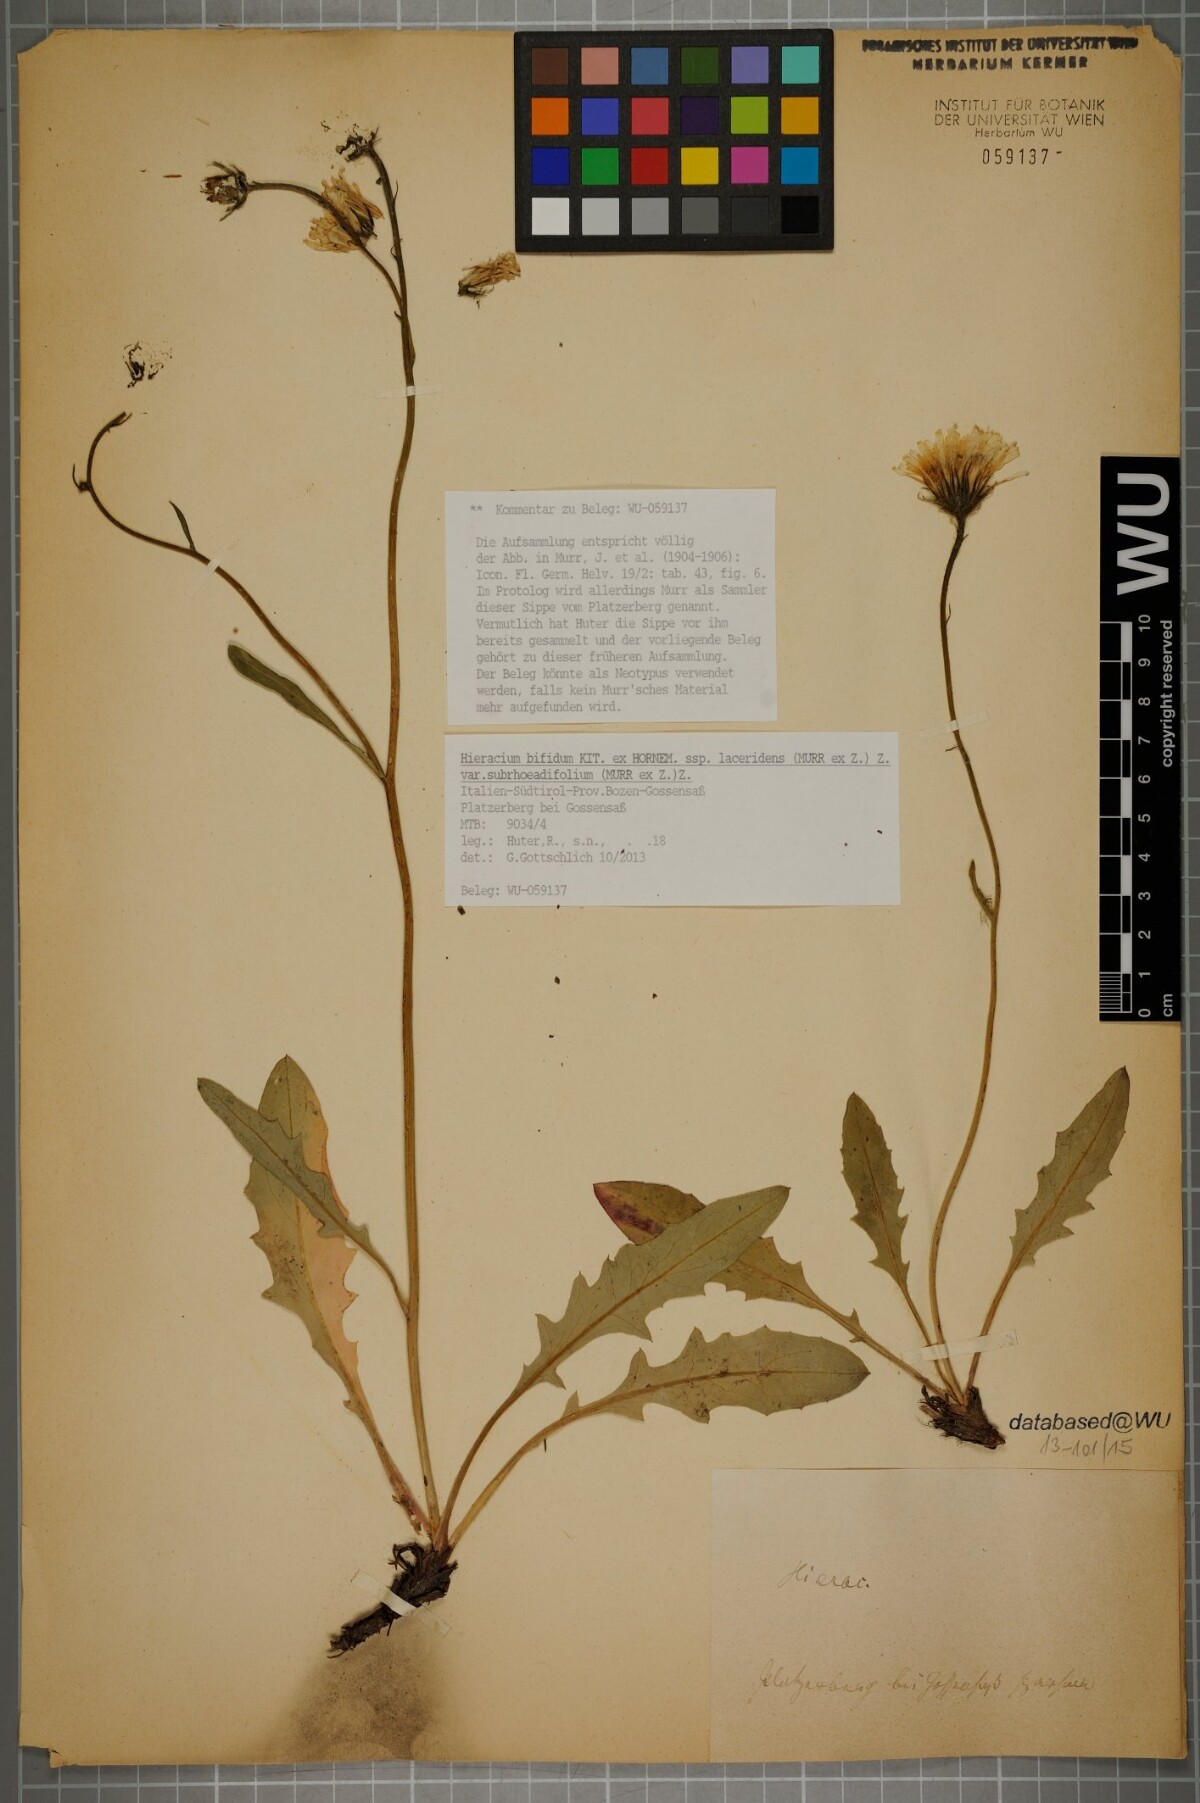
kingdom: Plantae
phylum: Tracheophyta
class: Magnoliopsida
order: Asterales
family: Asteraceae
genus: Hieracium
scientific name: Hieracium bifidum
